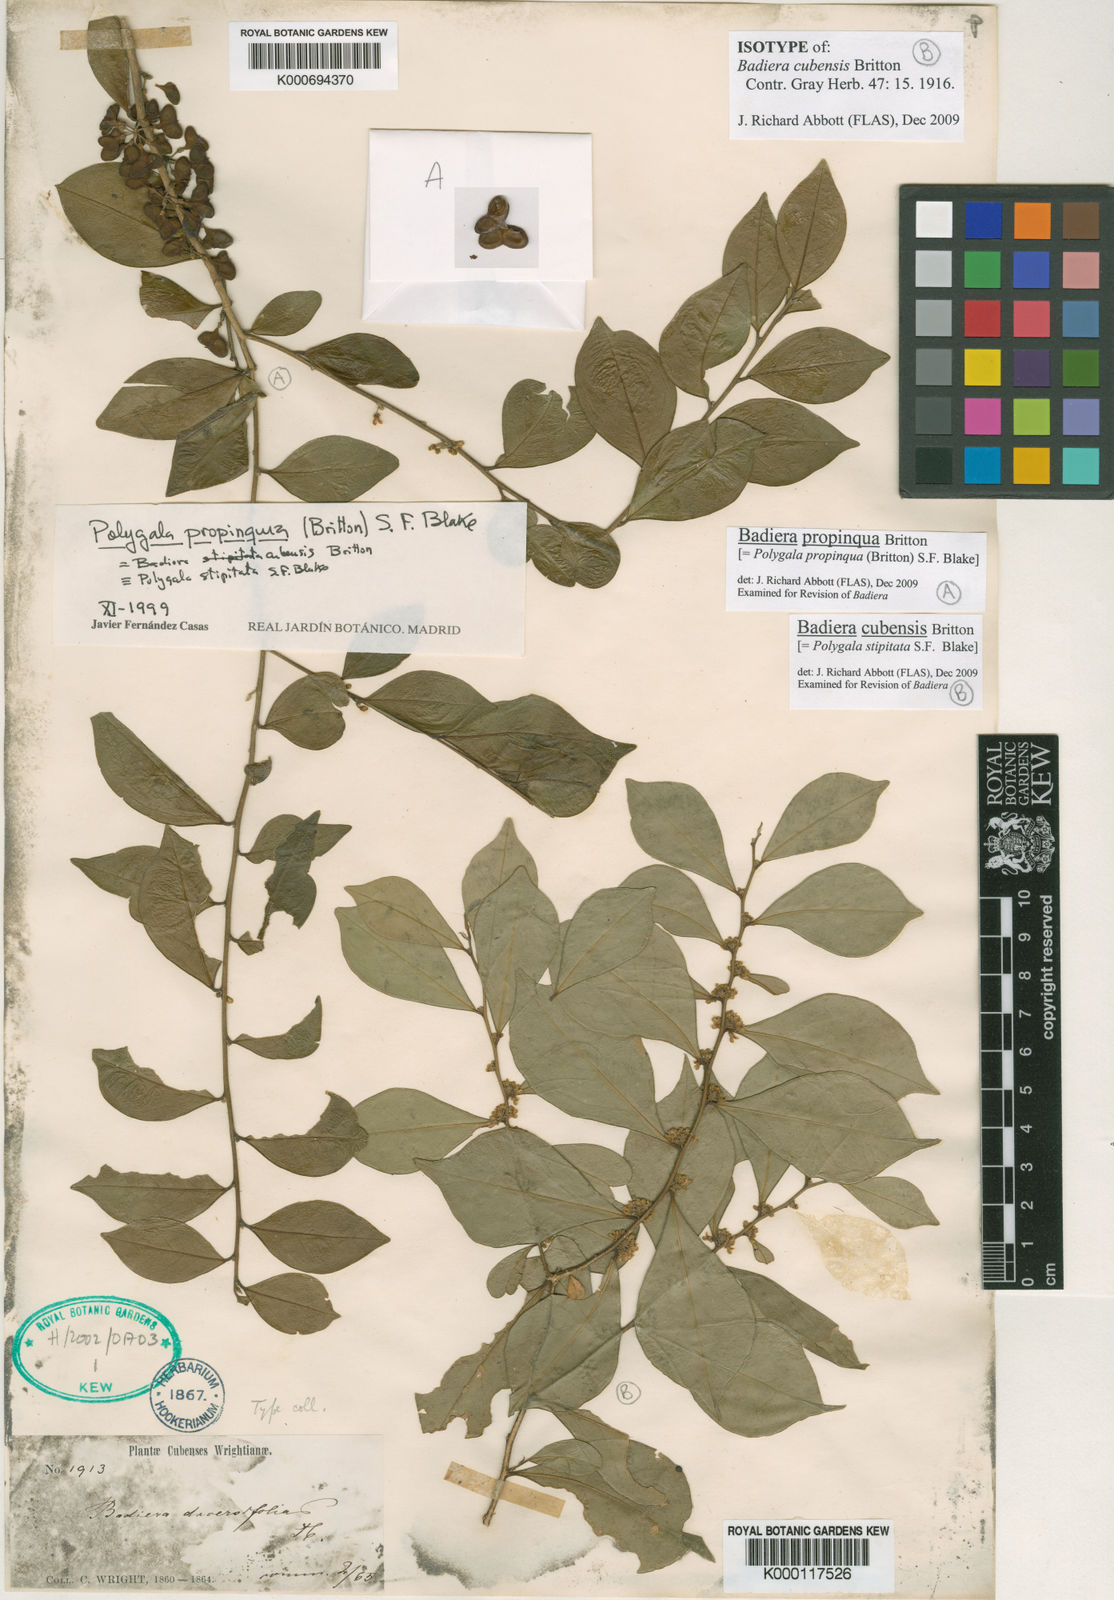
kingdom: Plantae
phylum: Tracheophyta
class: Magnoliopsida
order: Fabales
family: Polygalaceae
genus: Badiera
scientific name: Badiera cubensis
